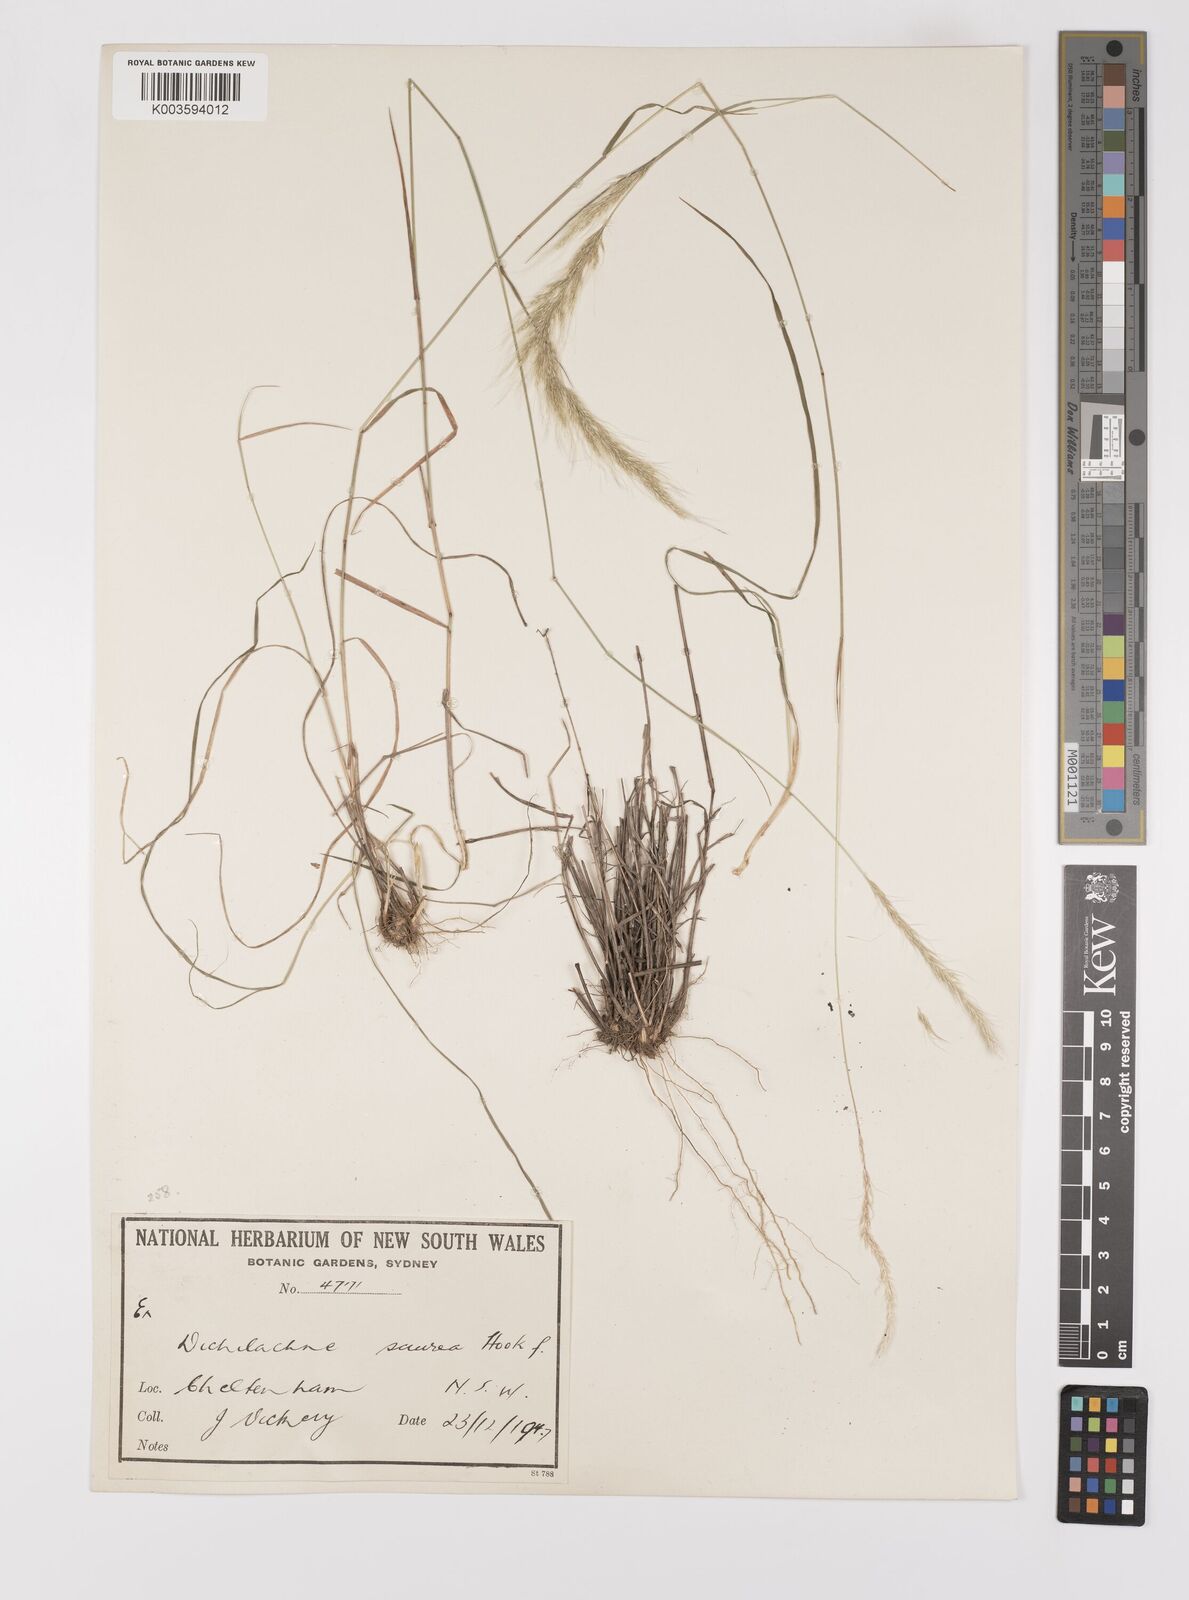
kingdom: Plantae
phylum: Tracheophyta
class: Liliopsida
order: Poales
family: Poaceae
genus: Dichelachne
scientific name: Dichelachne micrantha
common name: Plumegrass
